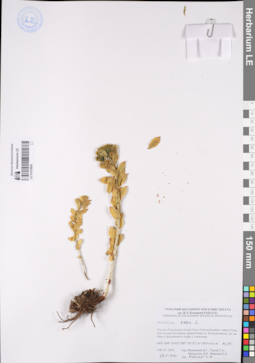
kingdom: Plantae
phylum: Tracheophyta
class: Magnoliopsida
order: Saxifragales
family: Crassulaceae
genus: Rhodiola
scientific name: Rhodiola rosea
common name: Roseroot
